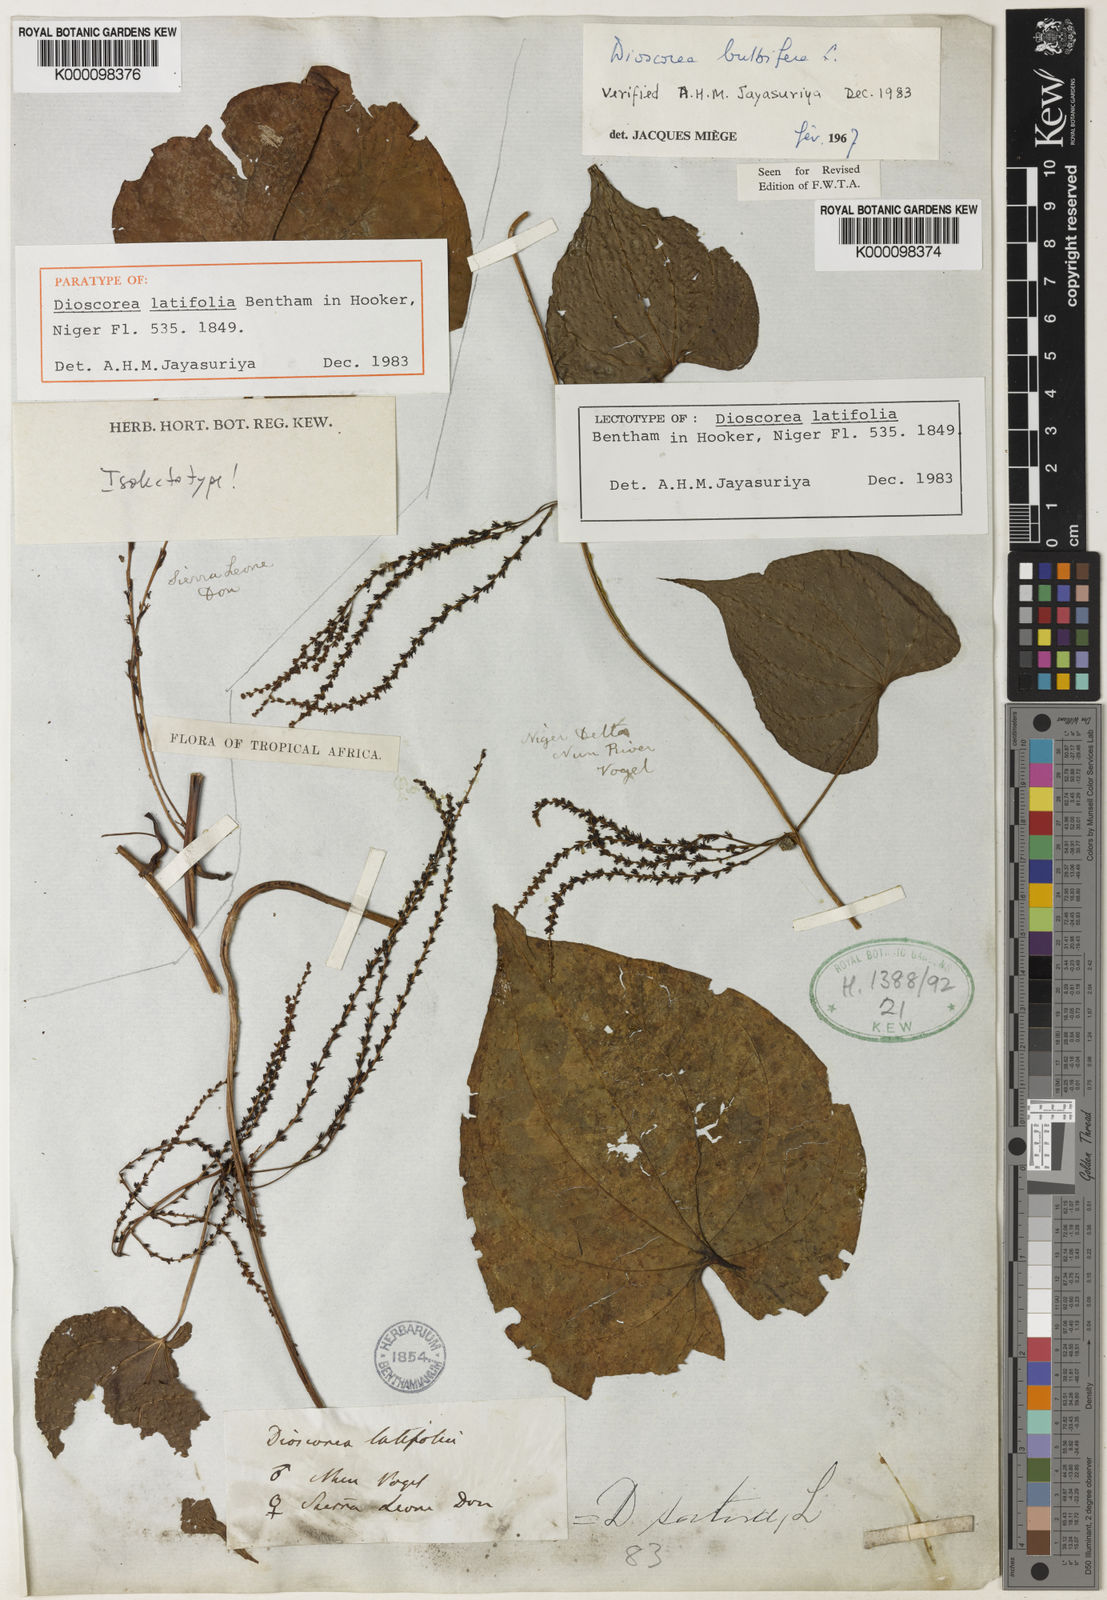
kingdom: Plantae
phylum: Tracheophyta
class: Liliopsida
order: Dioscoreales
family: Dioscoreaceae
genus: Dioscorea
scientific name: Dioscorea bulbifera
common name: Air yam
